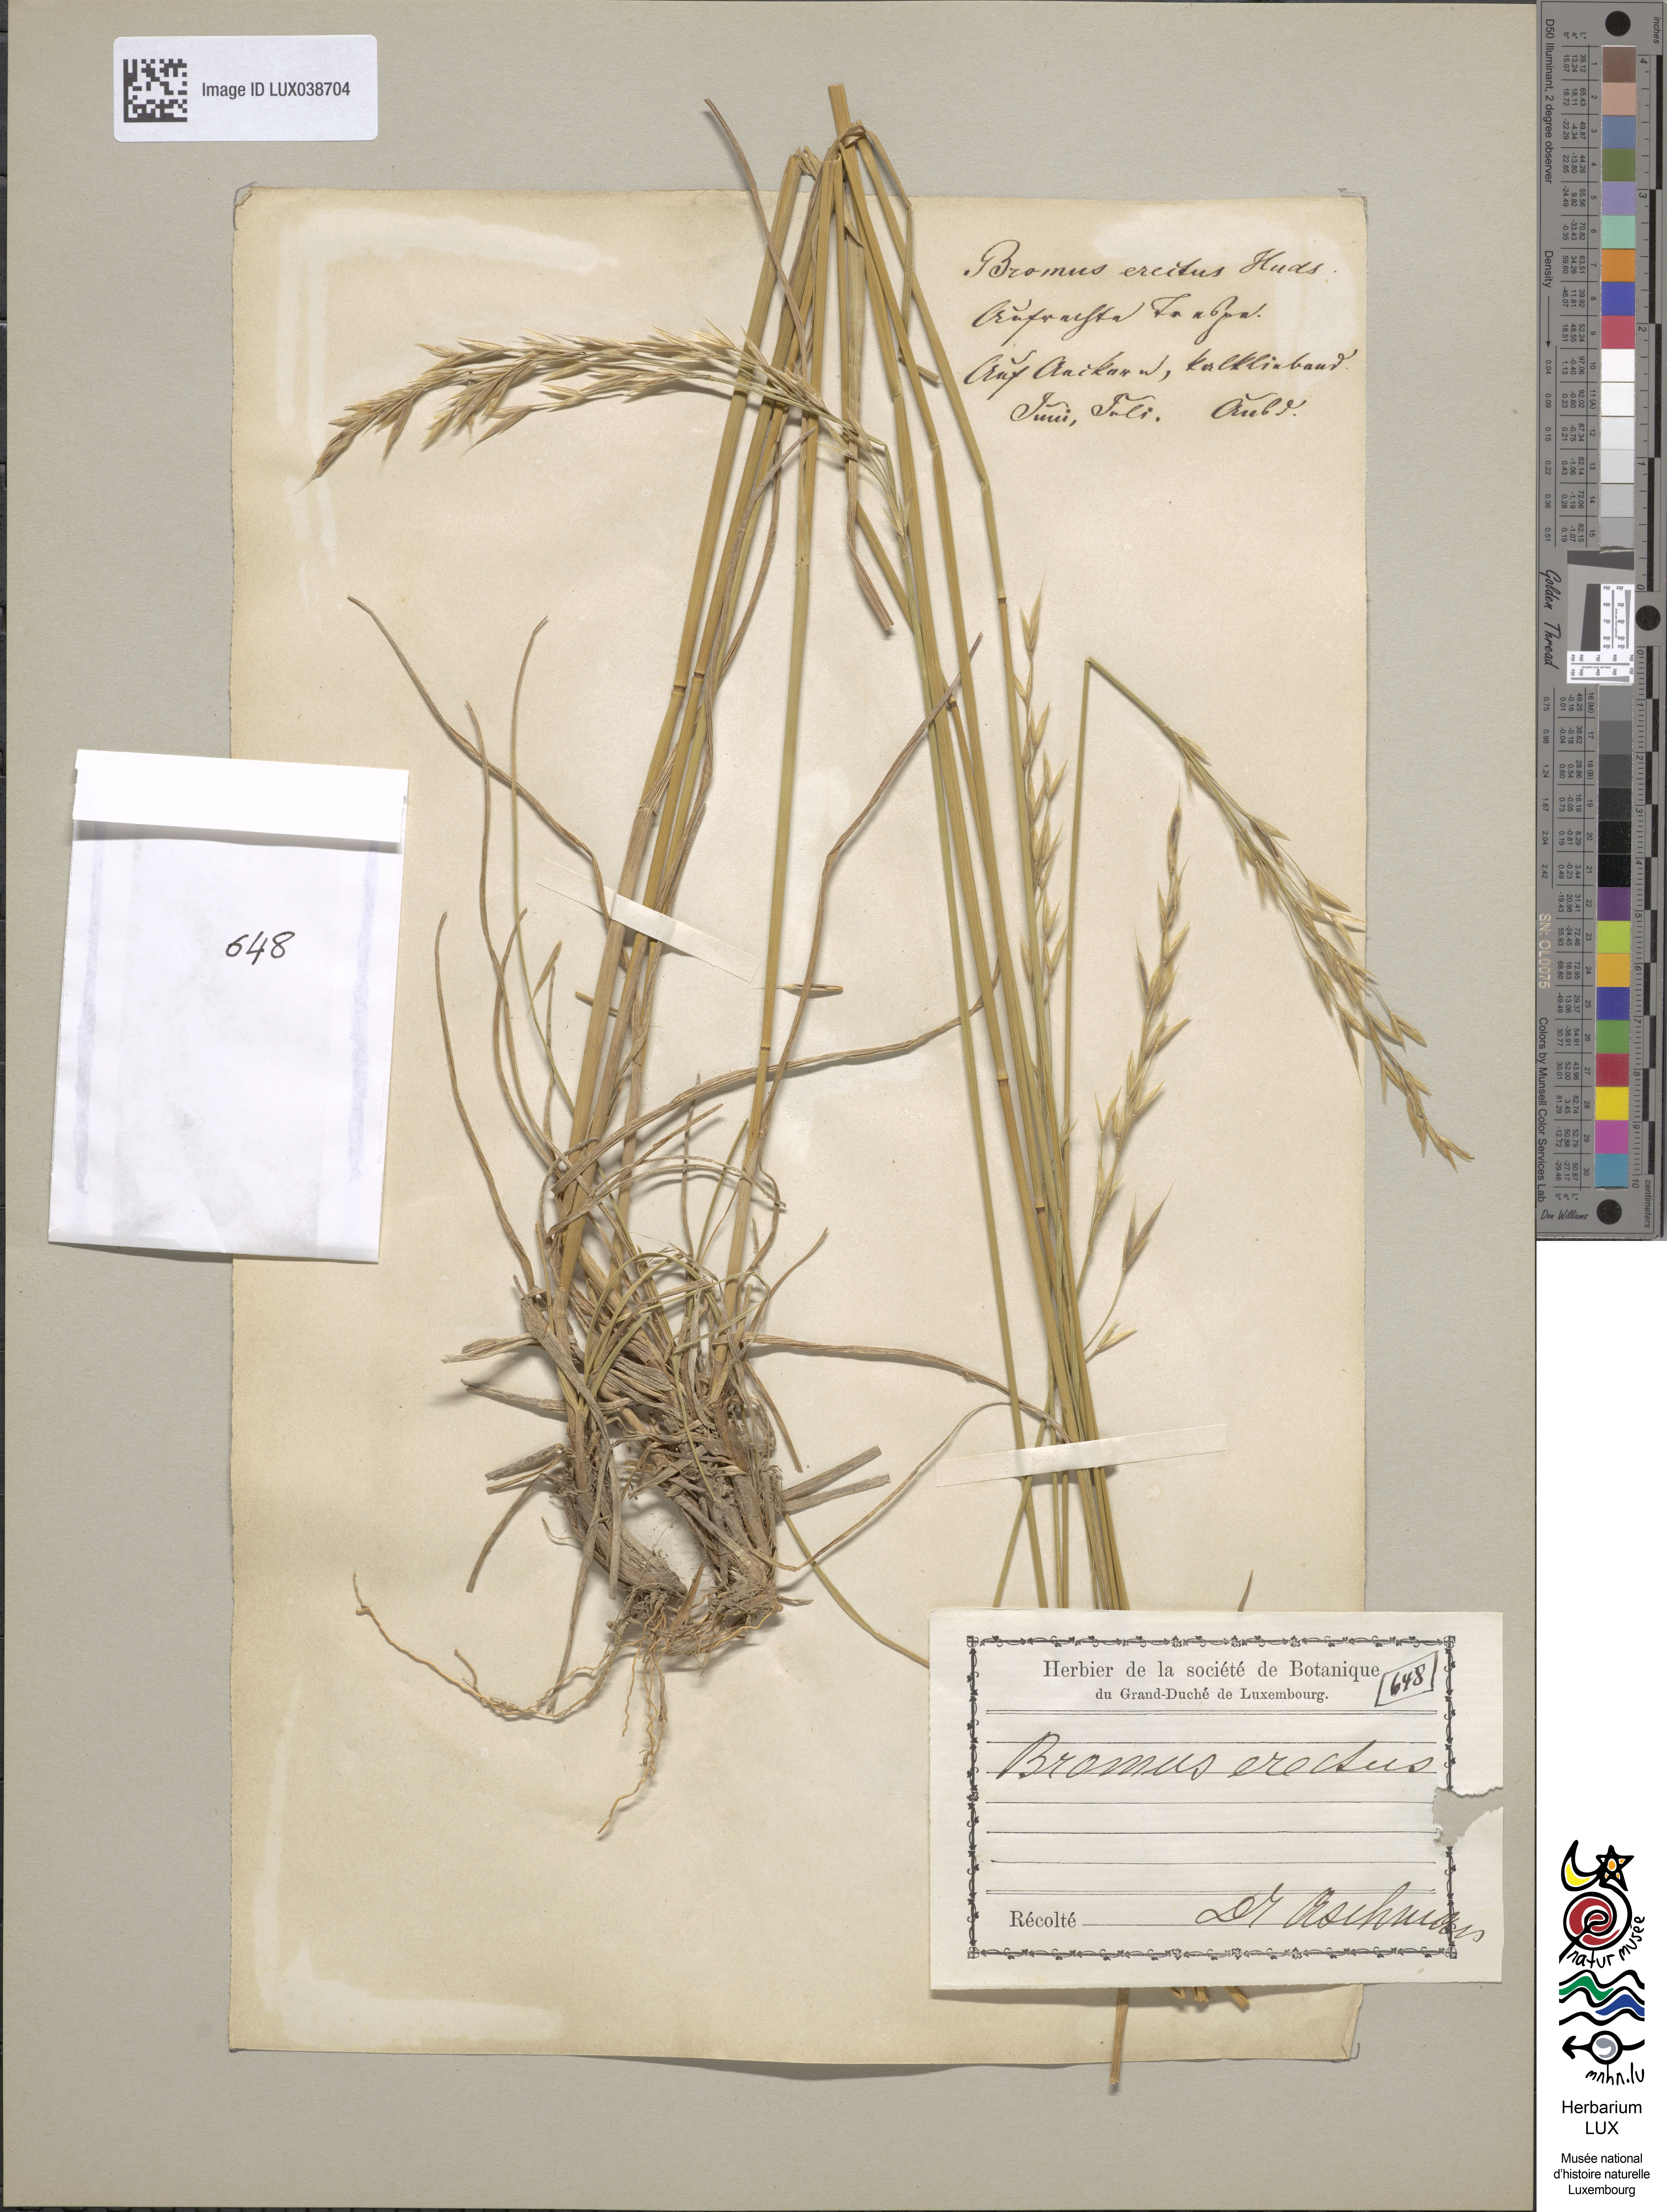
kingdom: Plantae
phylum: Tracheophyta
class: Liliopsida
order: Poales
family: Poaceae
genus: Bromus
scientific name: Bromus erectus
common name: Erect brome
